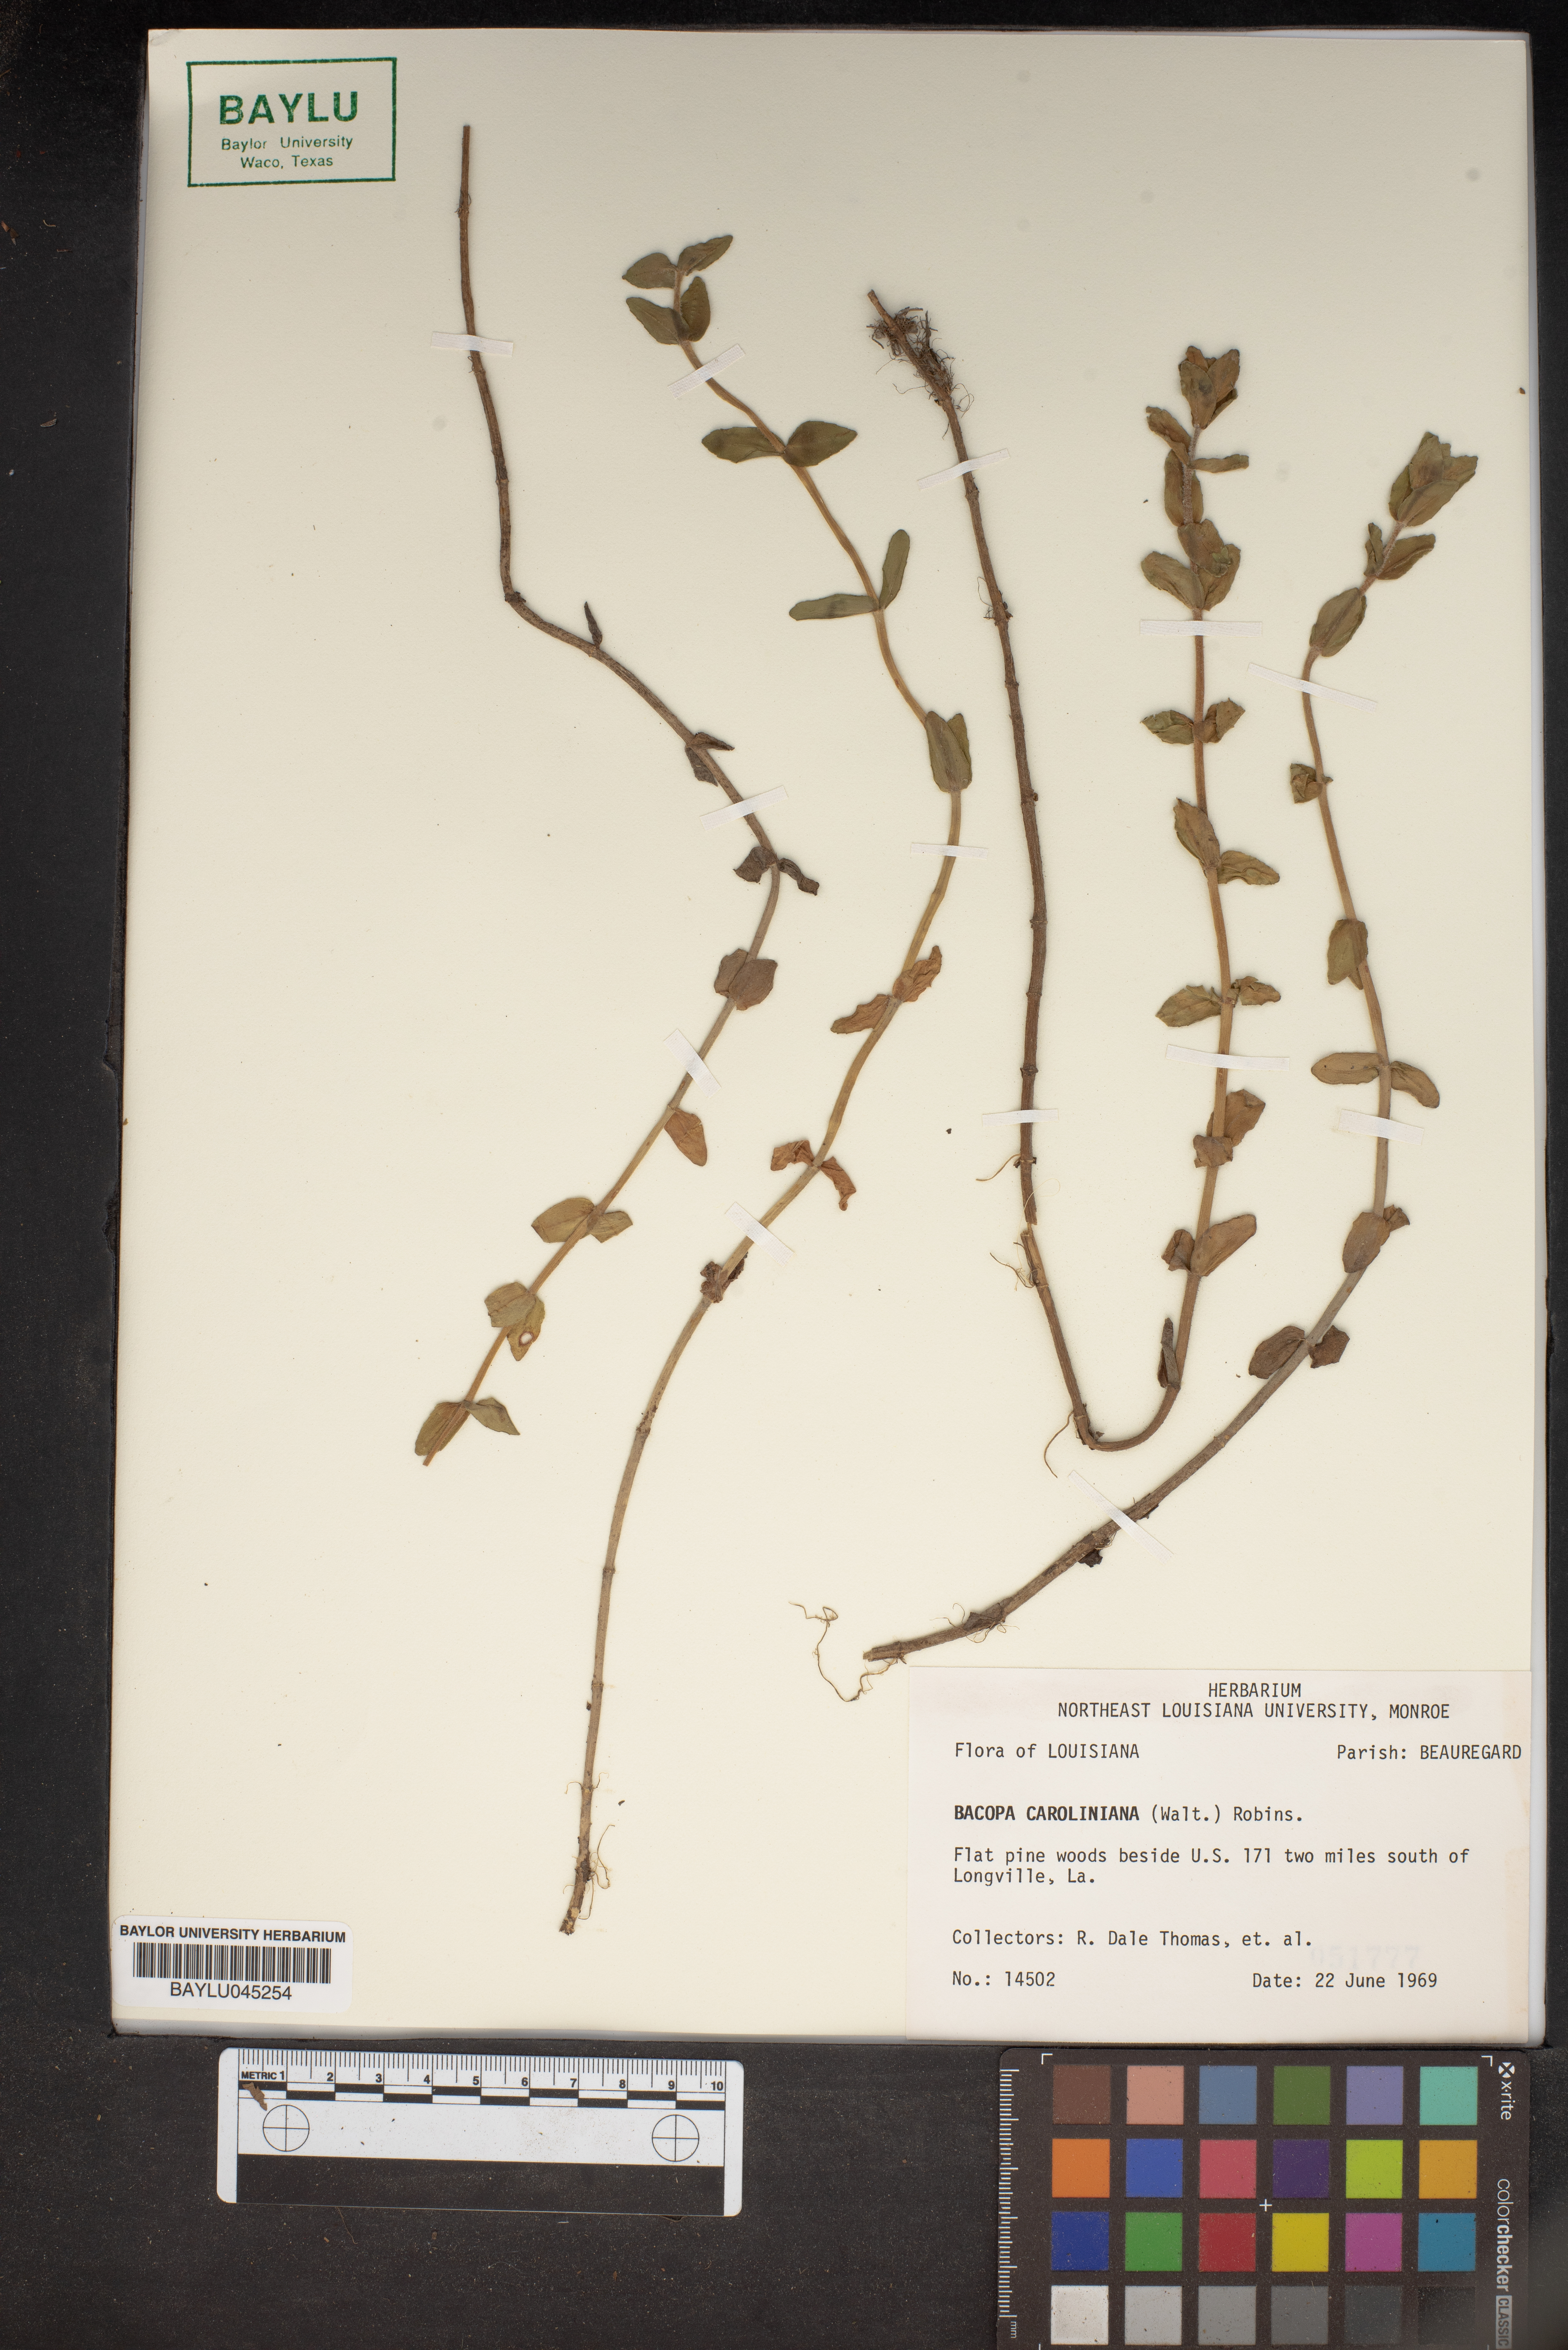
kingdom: Plantae
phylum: Tracheophyta
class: Magnoliopsida
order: Lamiales
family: Plantaginaceae
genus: Bacopa
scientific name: Bacopa caroliniana
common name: Lemon bacopa
